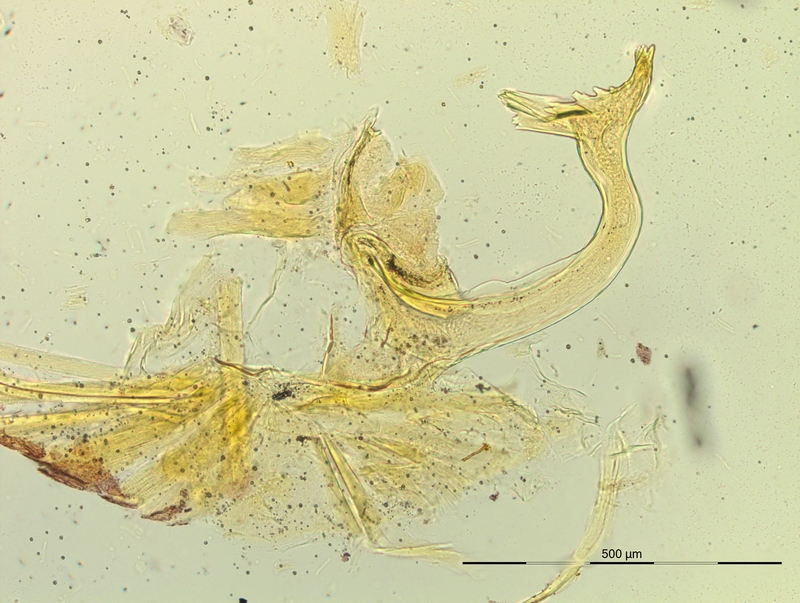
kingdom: Animalia
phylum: Arthropoda
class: Diplopoda
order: Chordeumatida
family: Craspedosomatidae
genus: Pyrgocyphosoma
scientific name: Pyrgocyphosoma titianum
